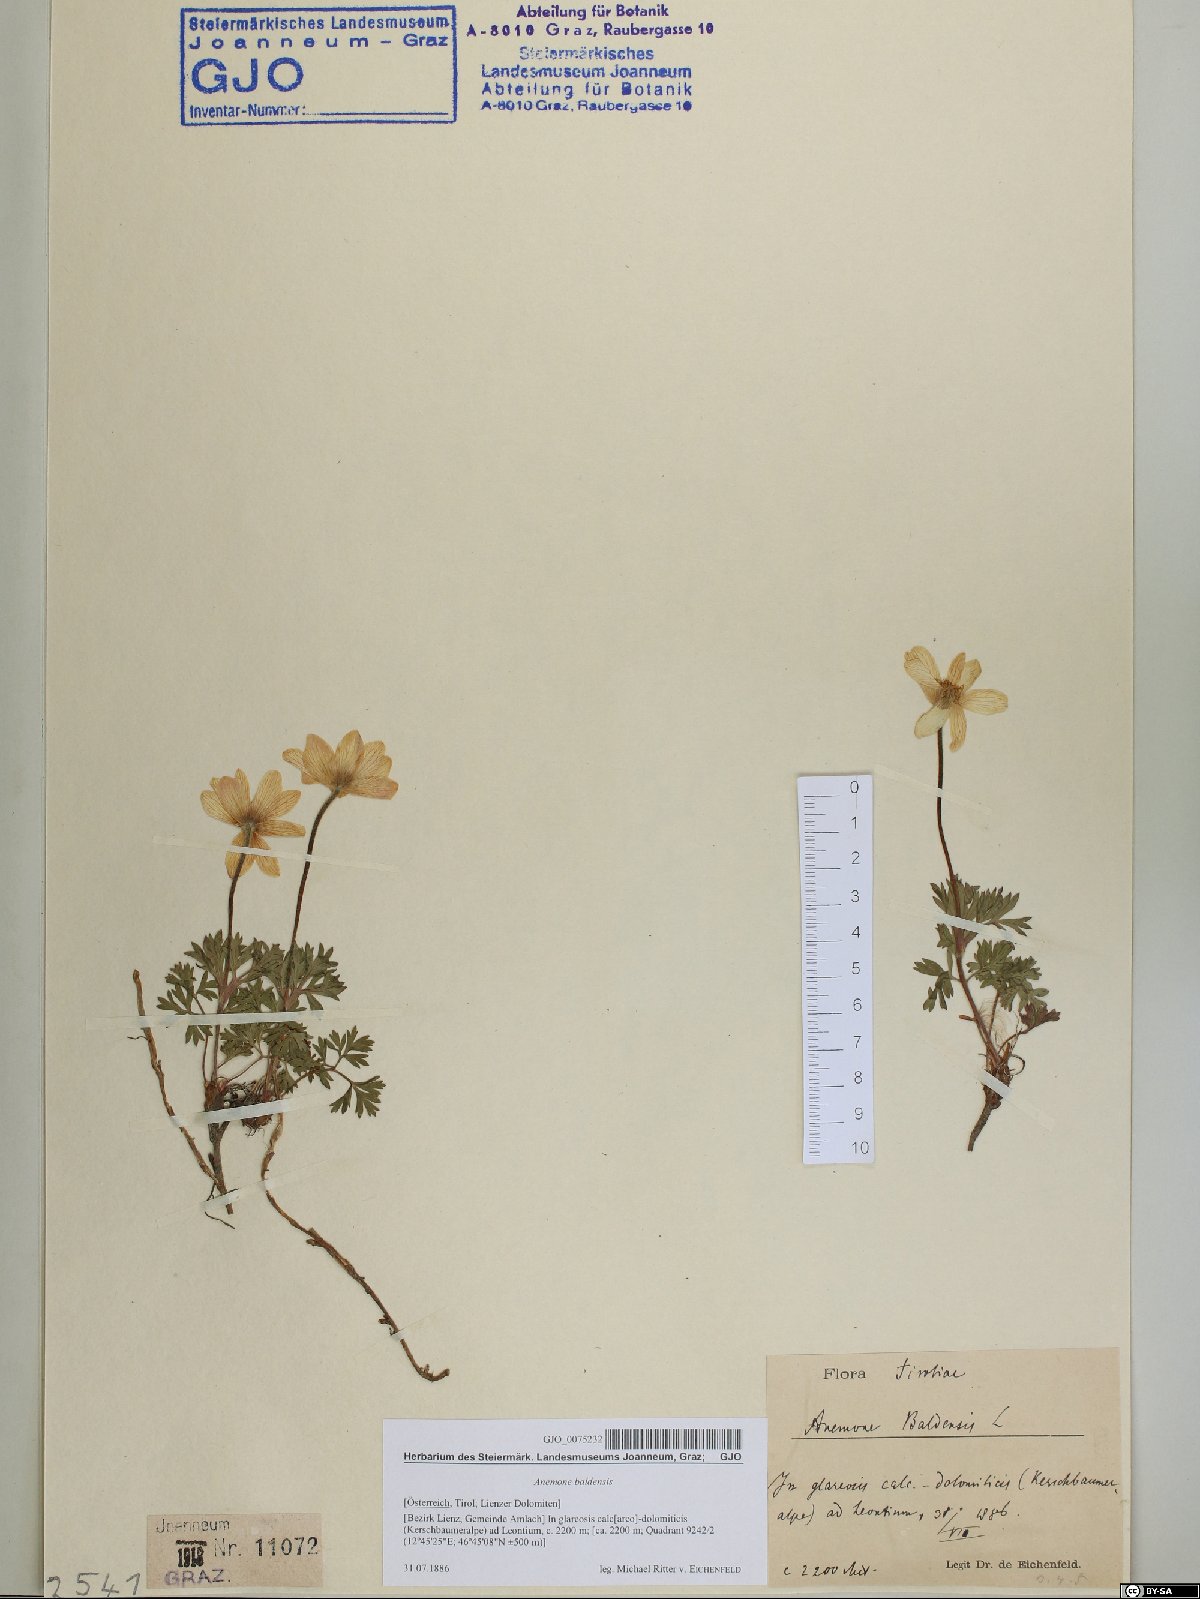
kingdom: Plantae
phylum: Tracheophyta
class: Magnoliopsida
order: Ranunculales
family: Ranunculaceae
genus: Anemone
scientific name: Anemone baldensis
